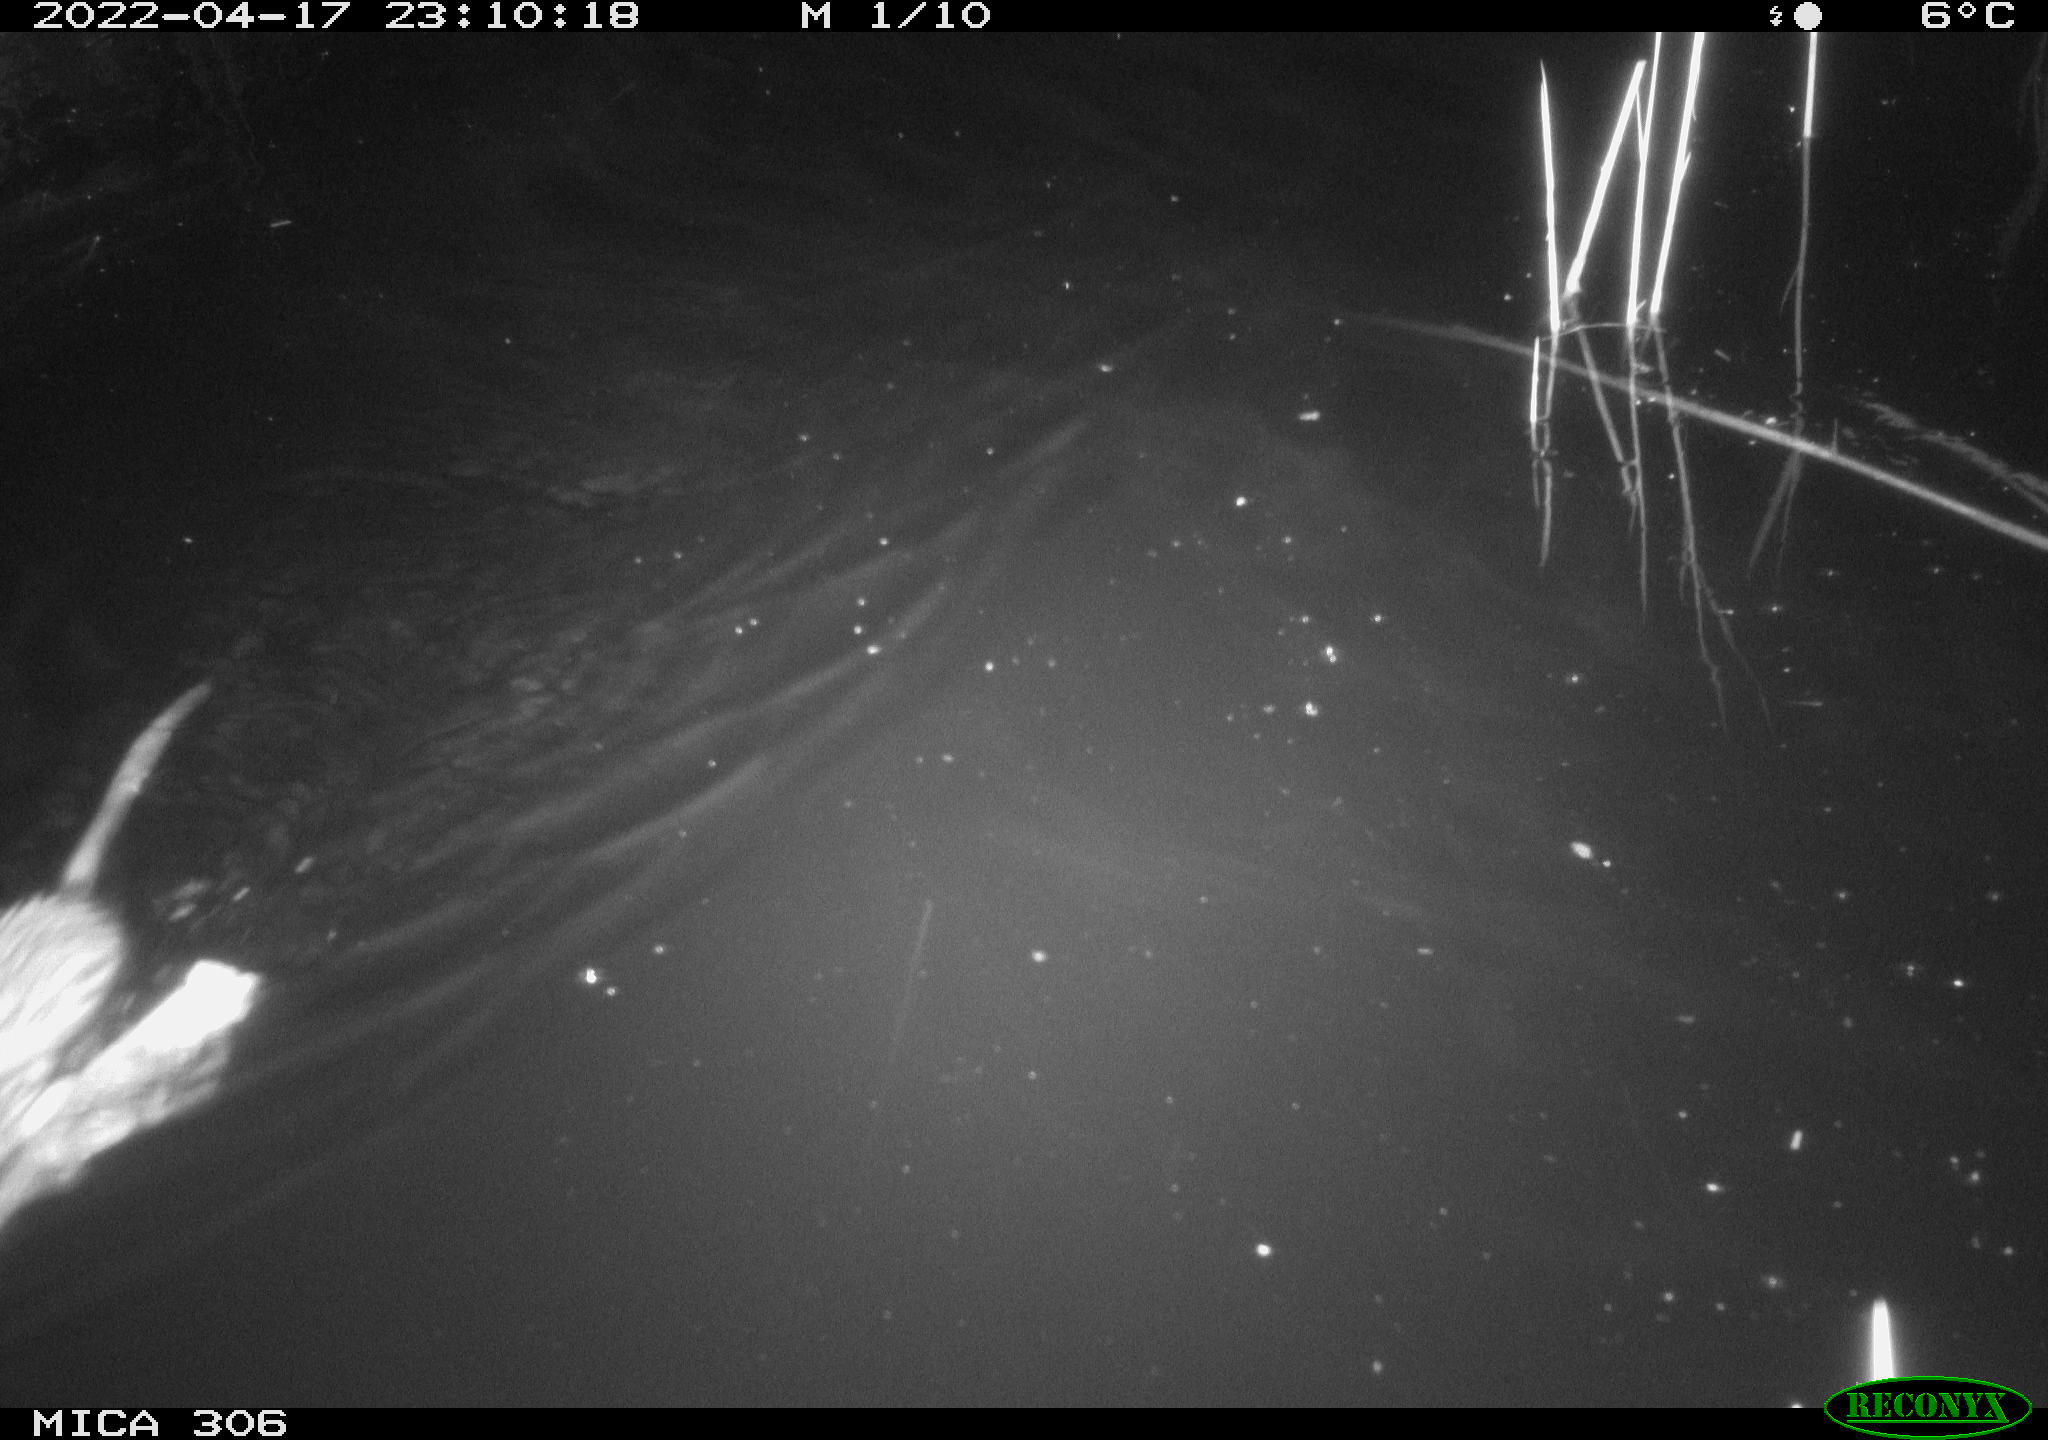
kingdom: Animalia
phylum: Chordata
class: Mammalia
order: Rodentia
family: Cricetidae
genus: Ondatra
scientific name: Ondatra zibethicus
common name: Muskrat
